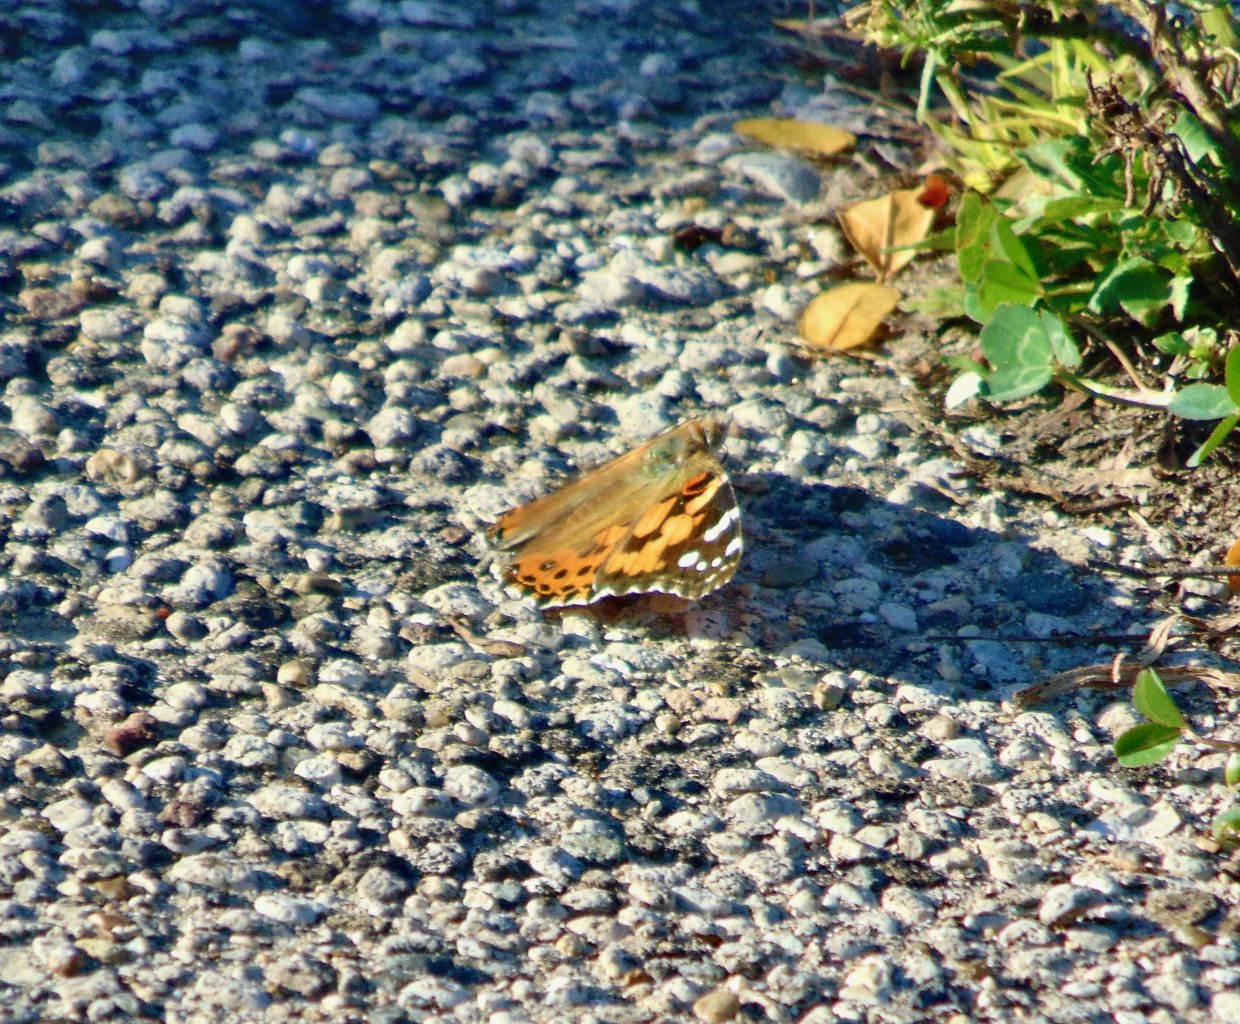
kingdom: Animalia
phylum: Arthropoda
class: Insecta
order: Lepidoptera
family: Nymphalidae
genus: Vanessa
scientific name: Vanessa cardui
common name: Painted Lady
